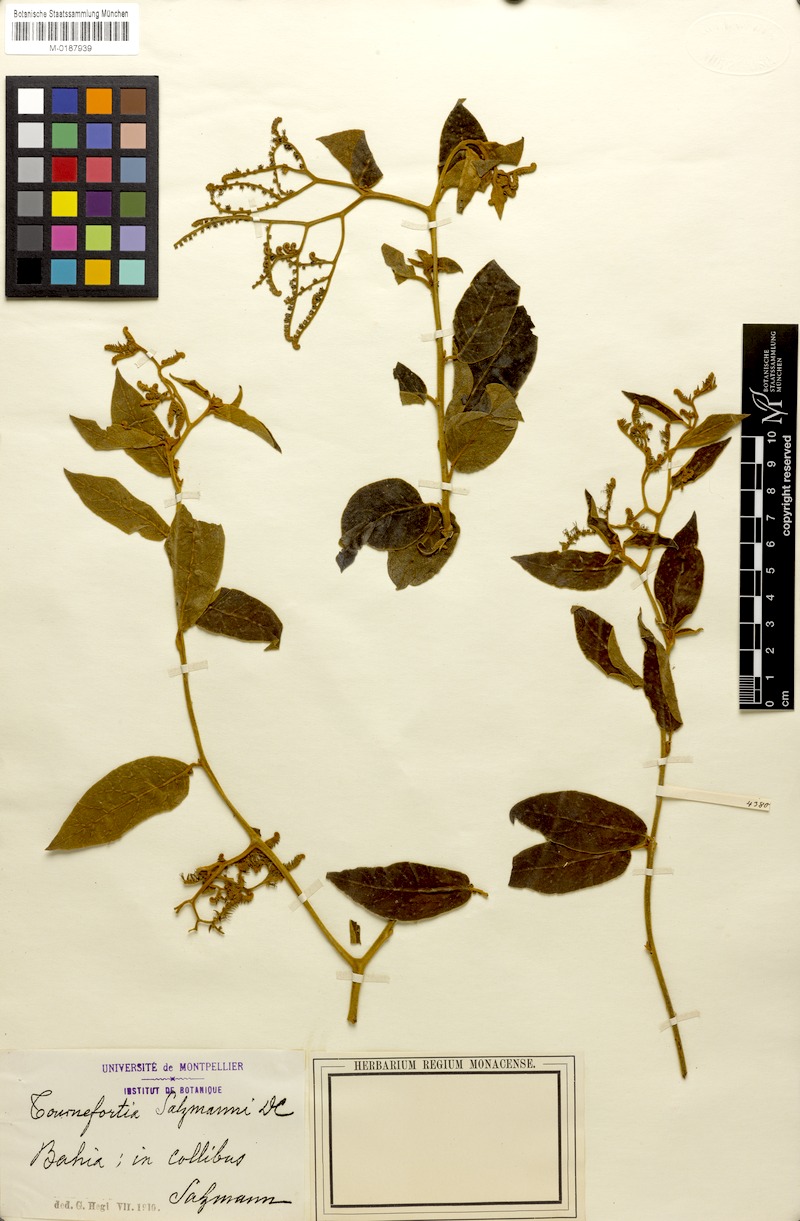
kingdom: Plantae
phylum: Tracheophyta
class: Magnoliopsida
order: Boraginales
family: Heliotropiaceae
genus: Myriopus
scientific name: Myriopus salzmannii
